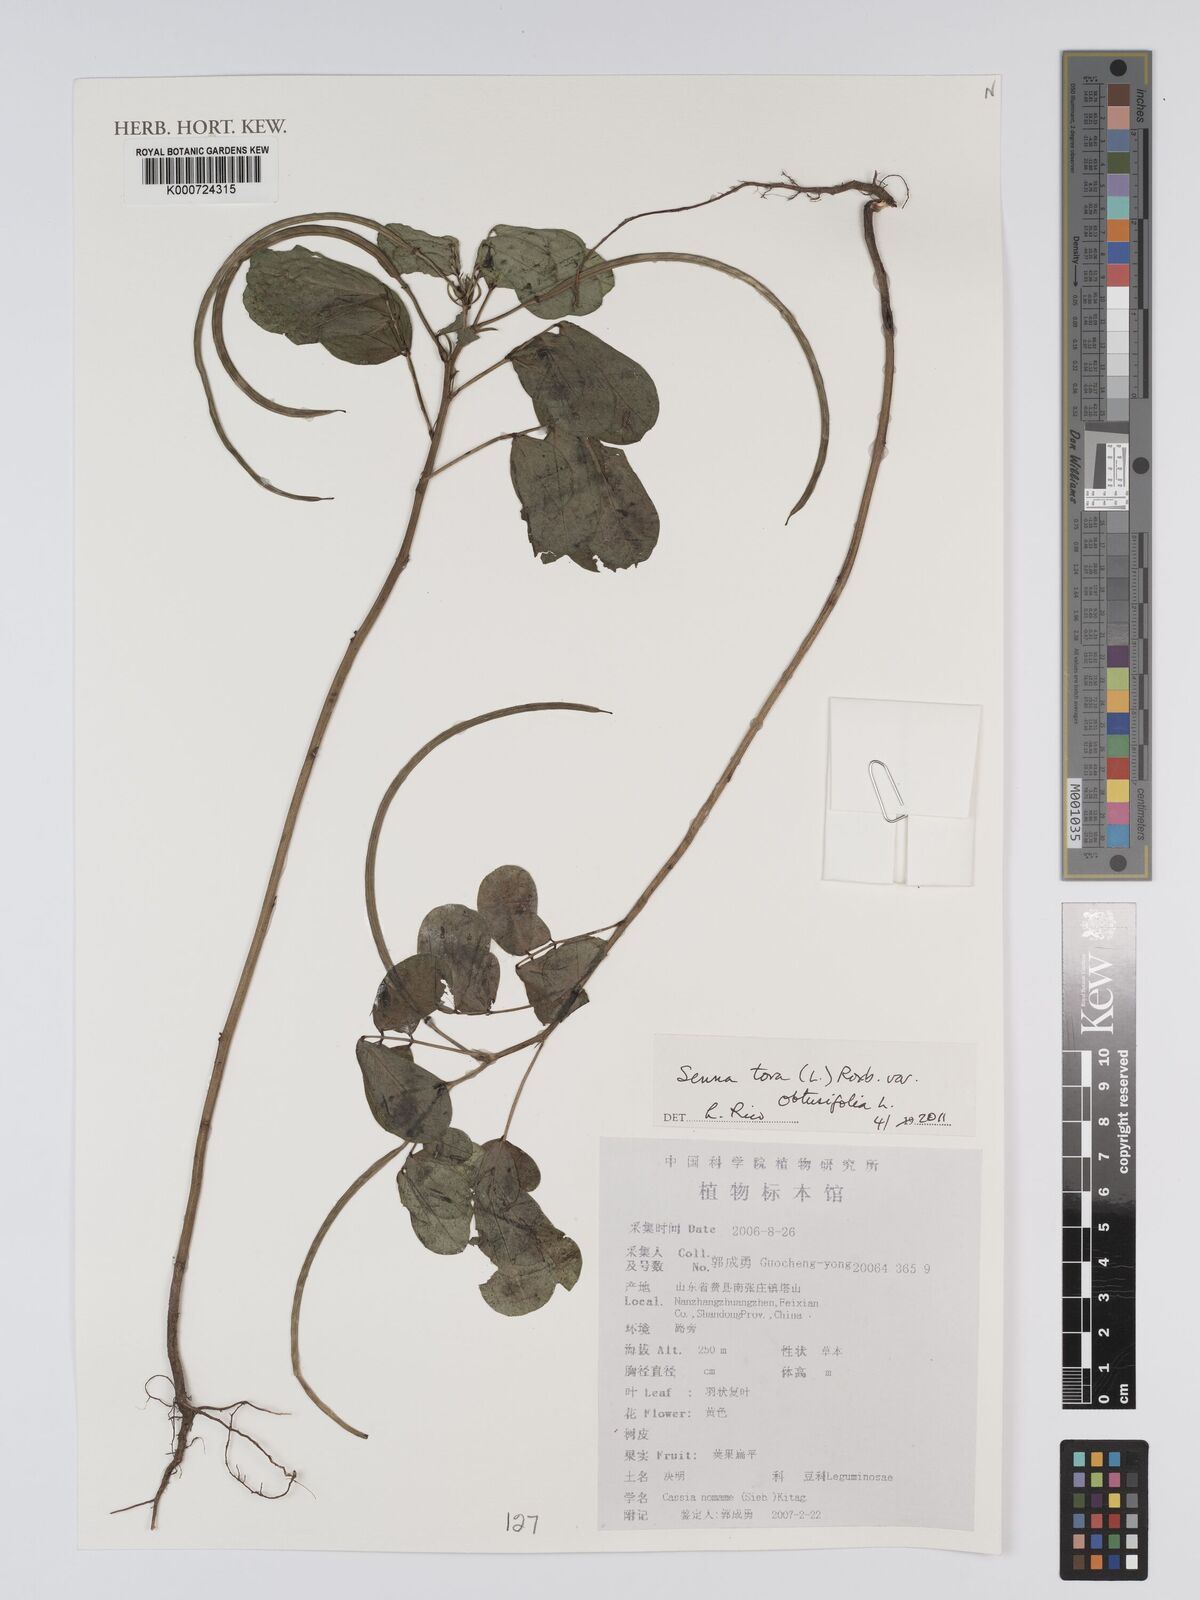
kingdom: Plantae
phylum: Tracheophyta
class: Magnoliopsida
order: Fabales
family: Fabaceae
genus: Senna
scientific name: Senna tora
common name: Sickle senna
